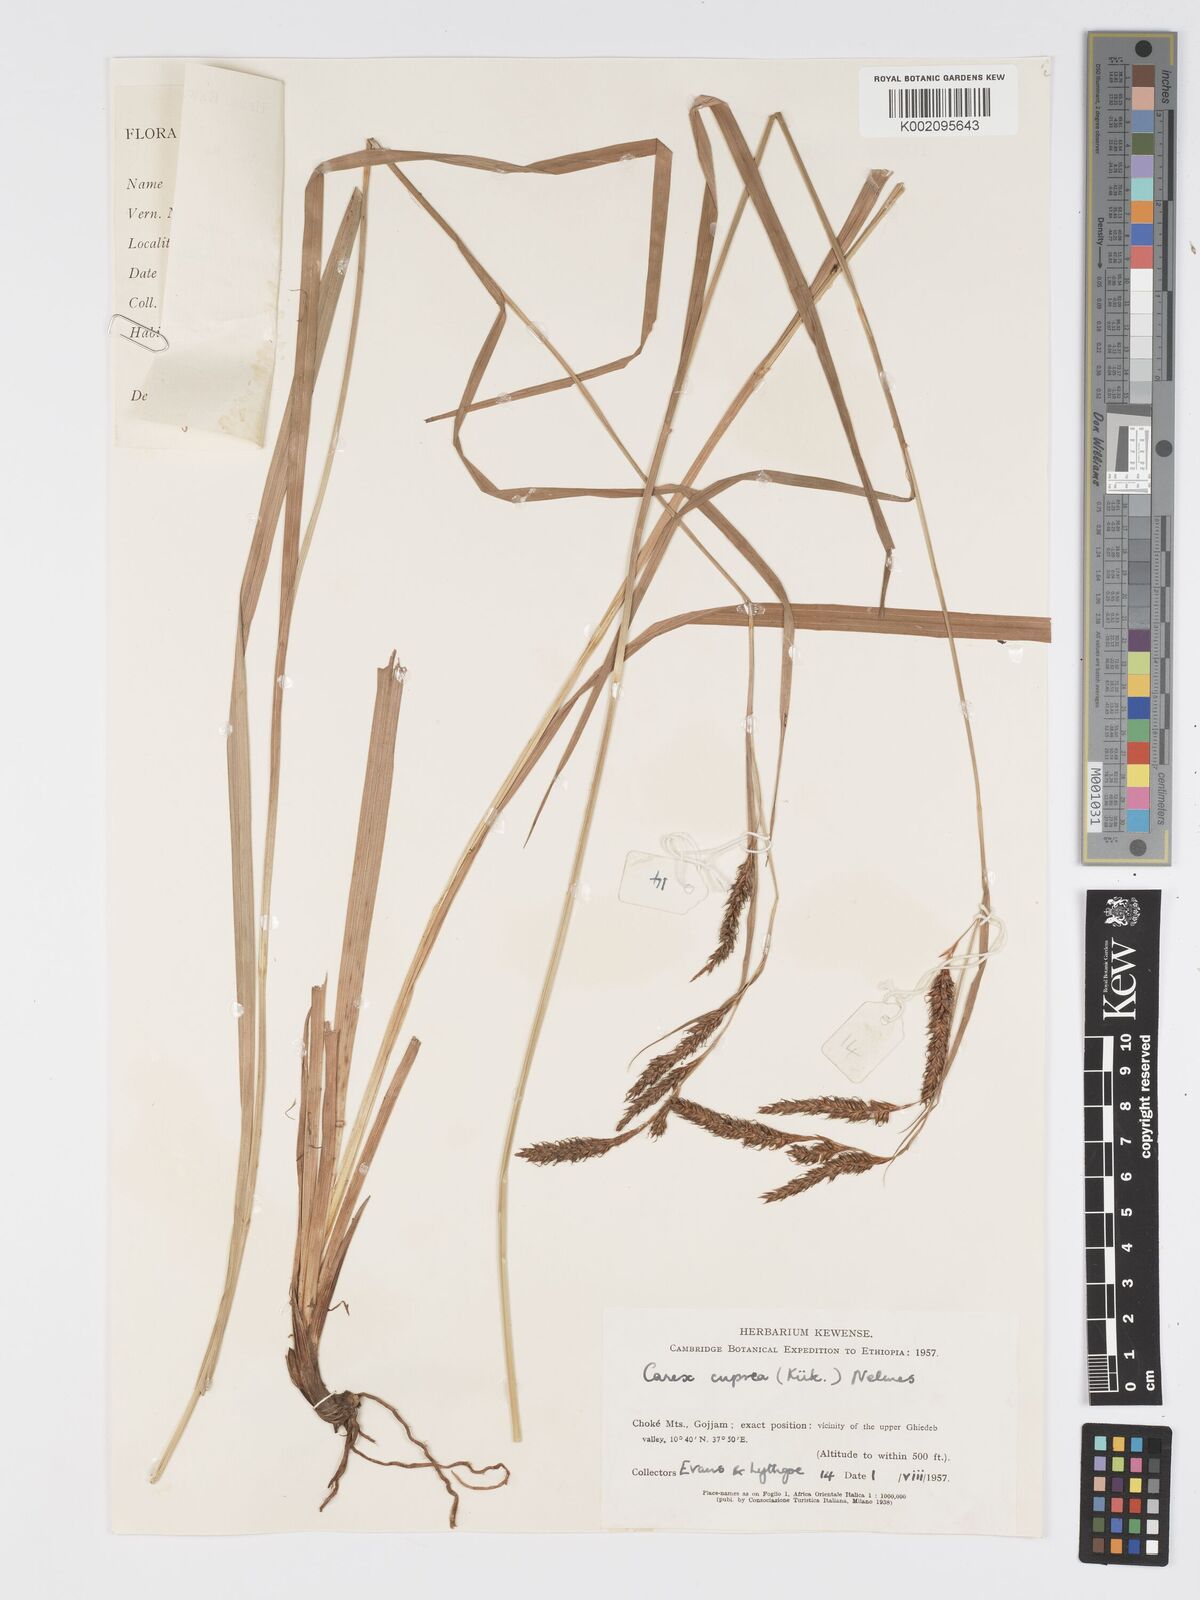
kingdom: Plantae
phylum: Tracheophyta
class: Liliopsida
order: Poales
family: Cyperaceae
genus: Carex
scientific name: Carex petitiana
